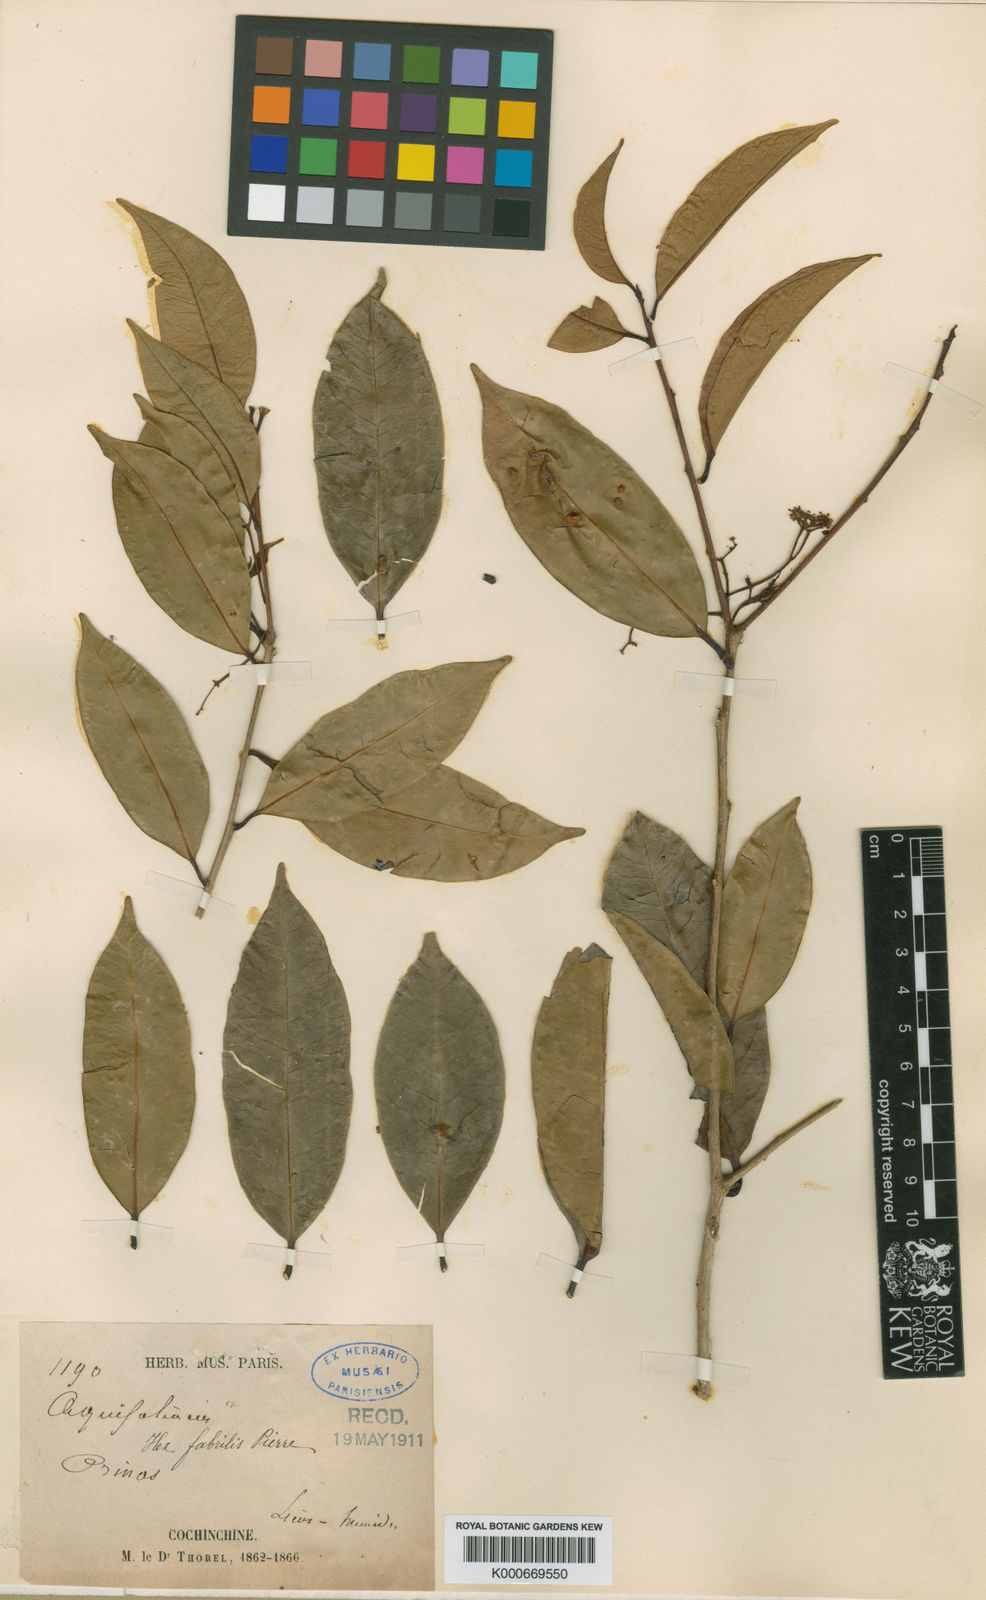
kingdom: Plantae
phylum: Tracheophyta
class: Magnoliopsida
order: Aquifoliales
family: Aquifoliaceae
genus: Ilex
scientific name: Ilex cymosa
